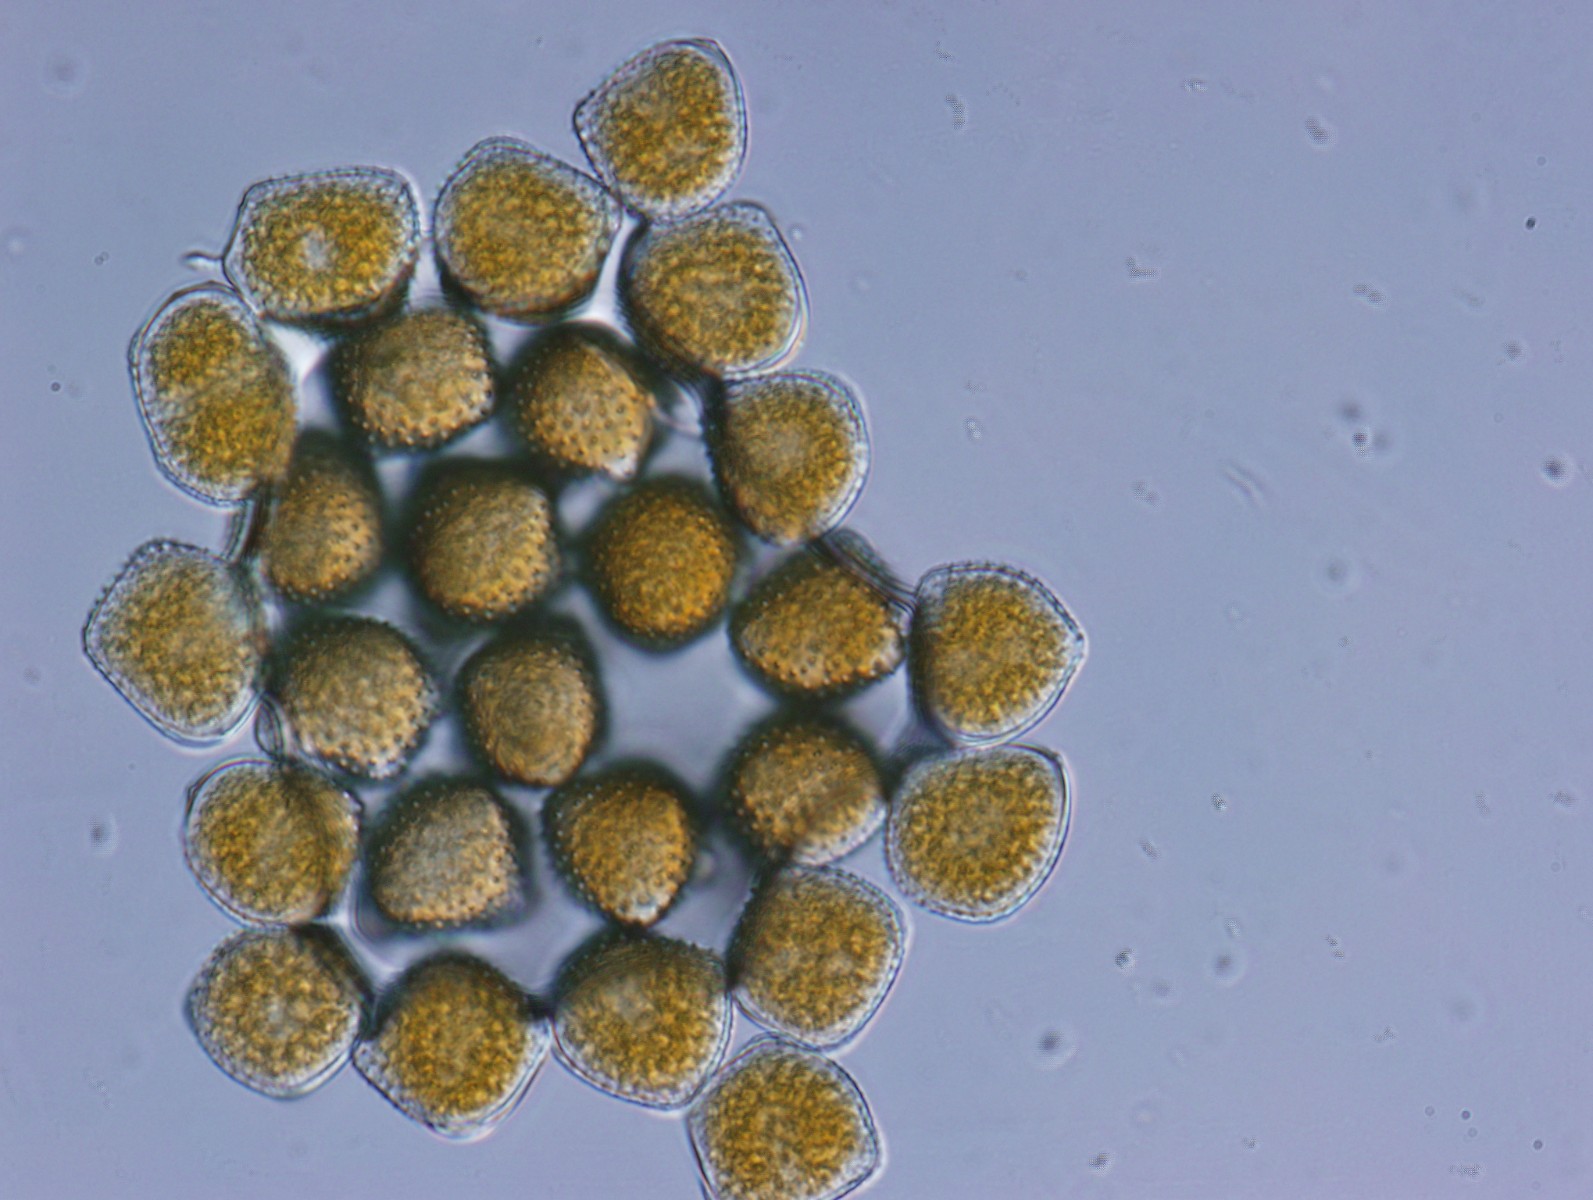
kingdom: Fungi
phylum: Basidiomycota
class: Pucciniomycetes
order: Pucciniales
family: Phragmidiaceae
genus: Kuehneola
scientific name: Kuehneola uredinis
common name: klynger-kædecellerust
